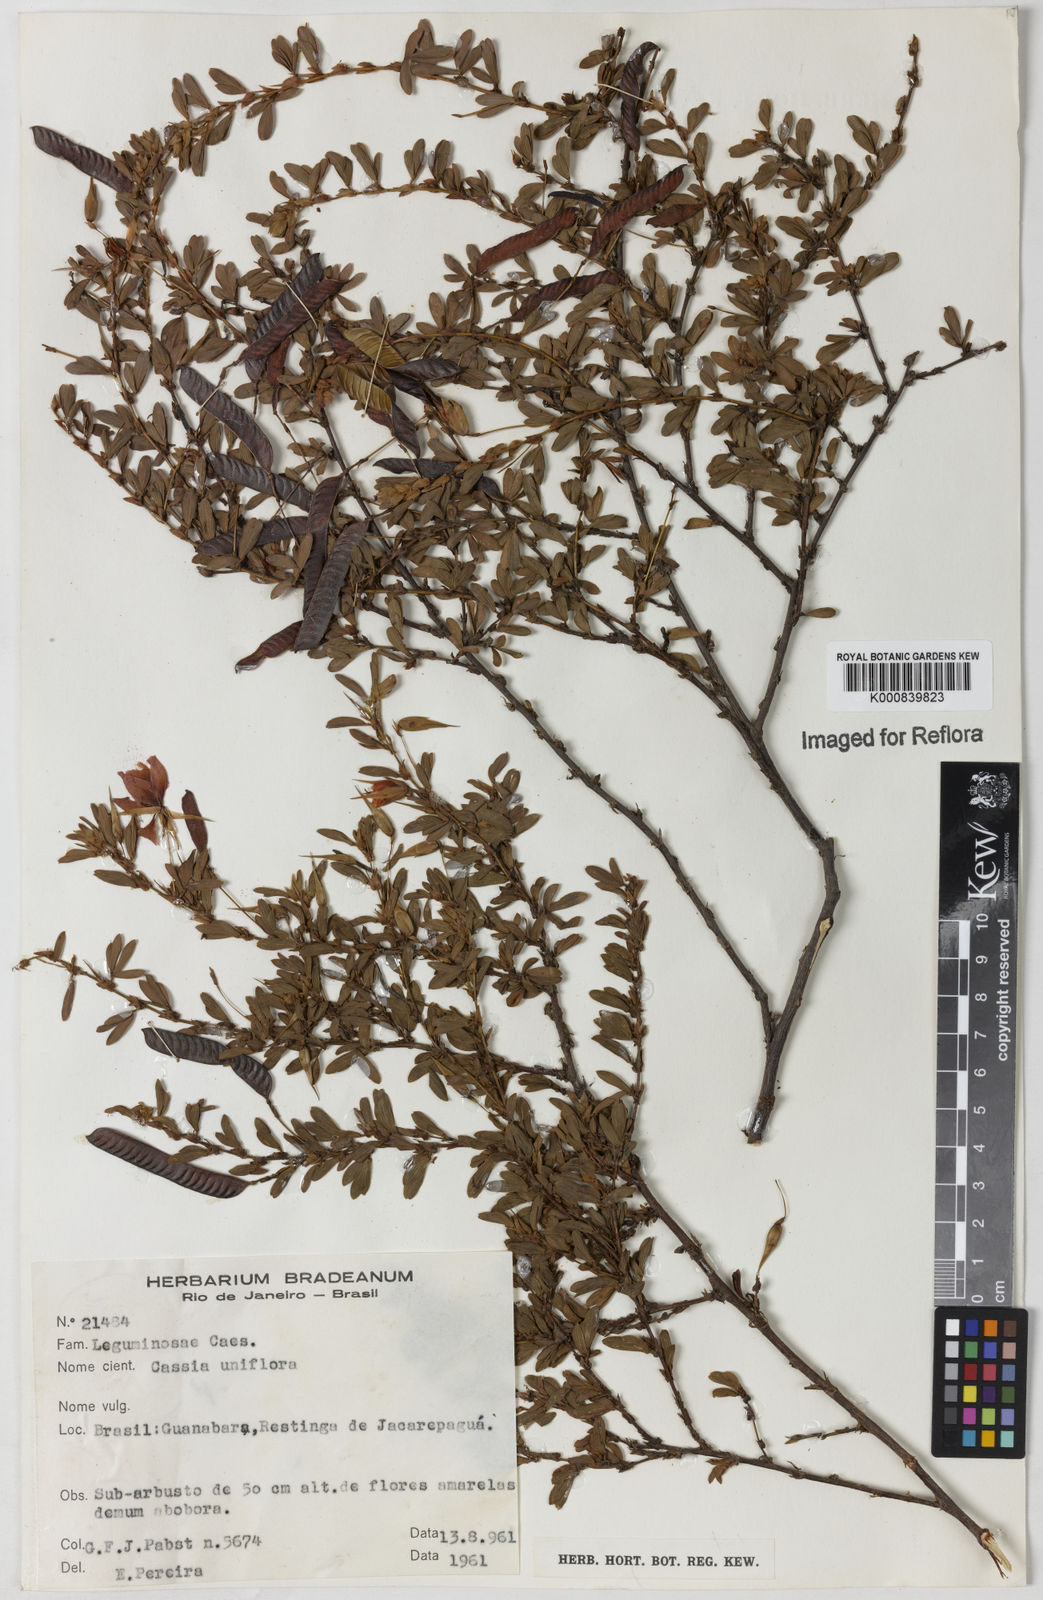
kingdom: Plantae
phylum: Tracheophyta
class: Magnoliopsida
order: Fabales
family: Fabaceae
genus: Chamaecrista
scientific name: Chamaecrista ramosa
